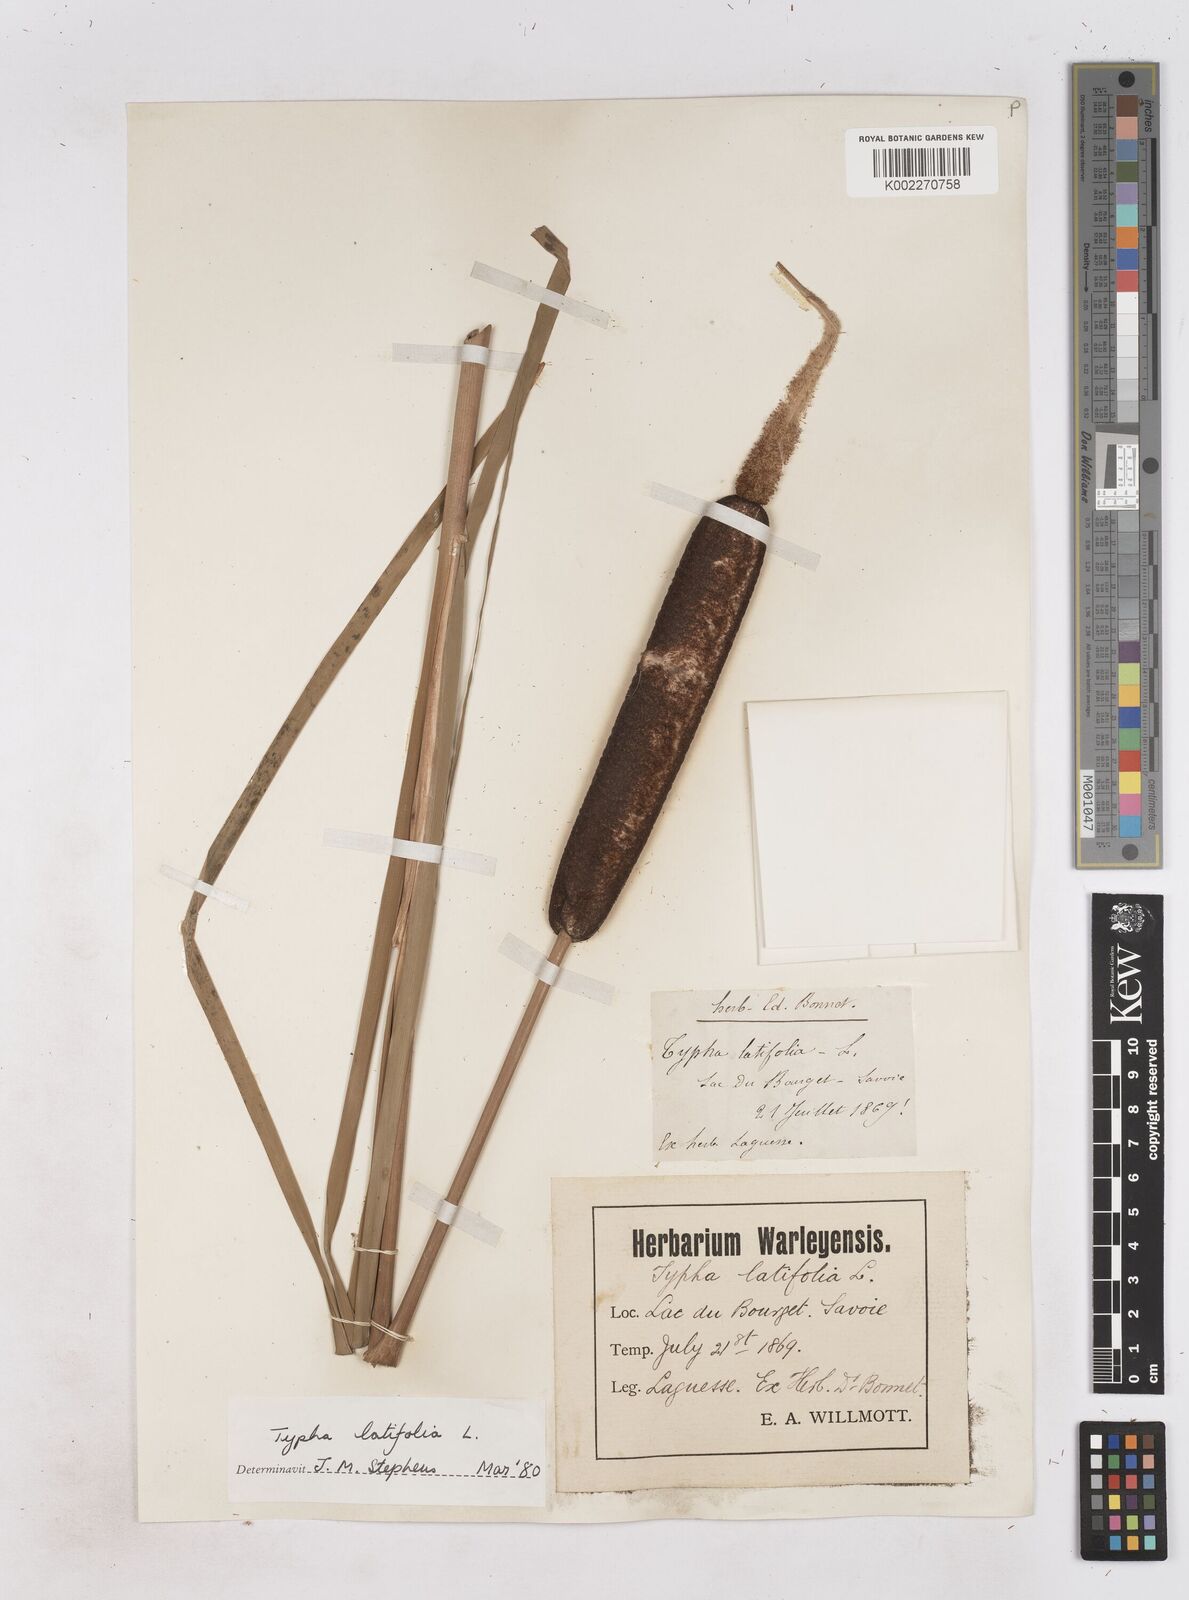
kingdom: Plantae
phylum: Tracheophyta
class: Liliopsida
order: Poales
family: Typhaceae
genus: Typha
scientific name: Typha latifolia
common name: Broadleaf cattail
